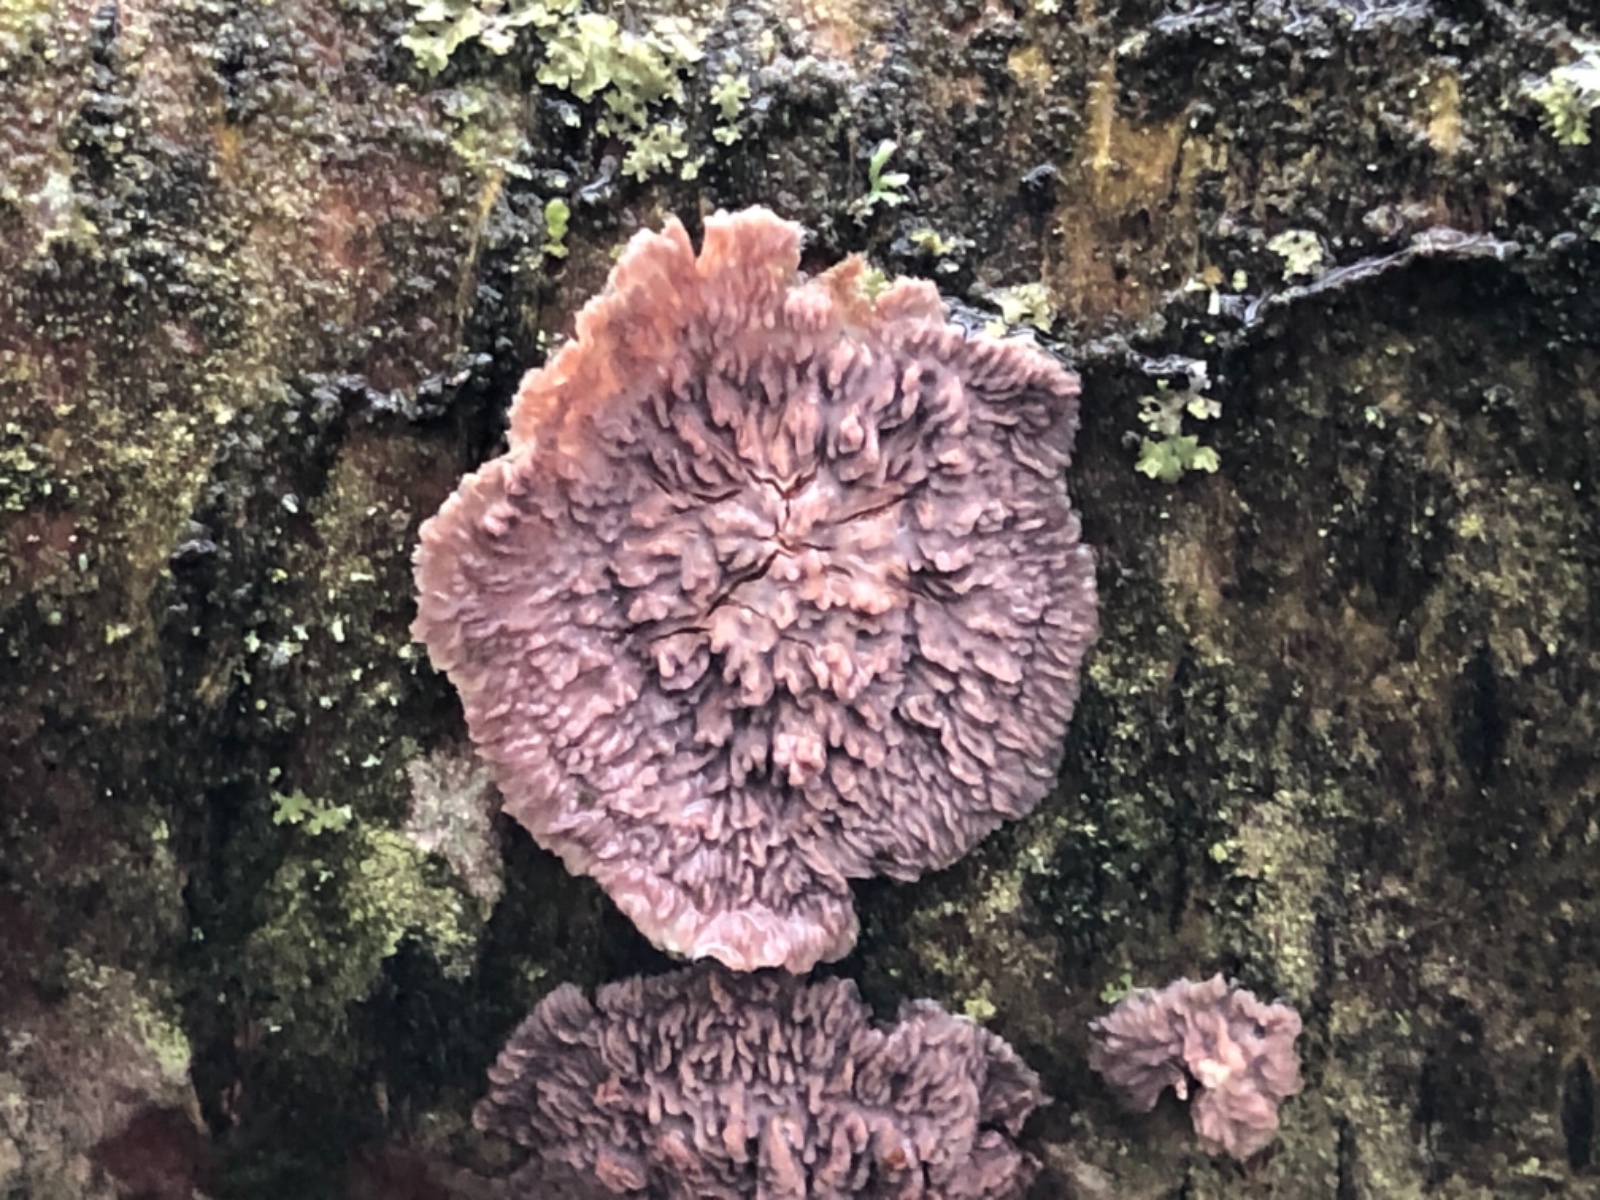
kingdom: Fungi
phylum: Basidiomycota
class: Agaricomycetes
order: Polyporales
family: Meruliaceae
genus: Phlebia
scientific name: Phlebia radiata
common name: stråle-åresvamp
